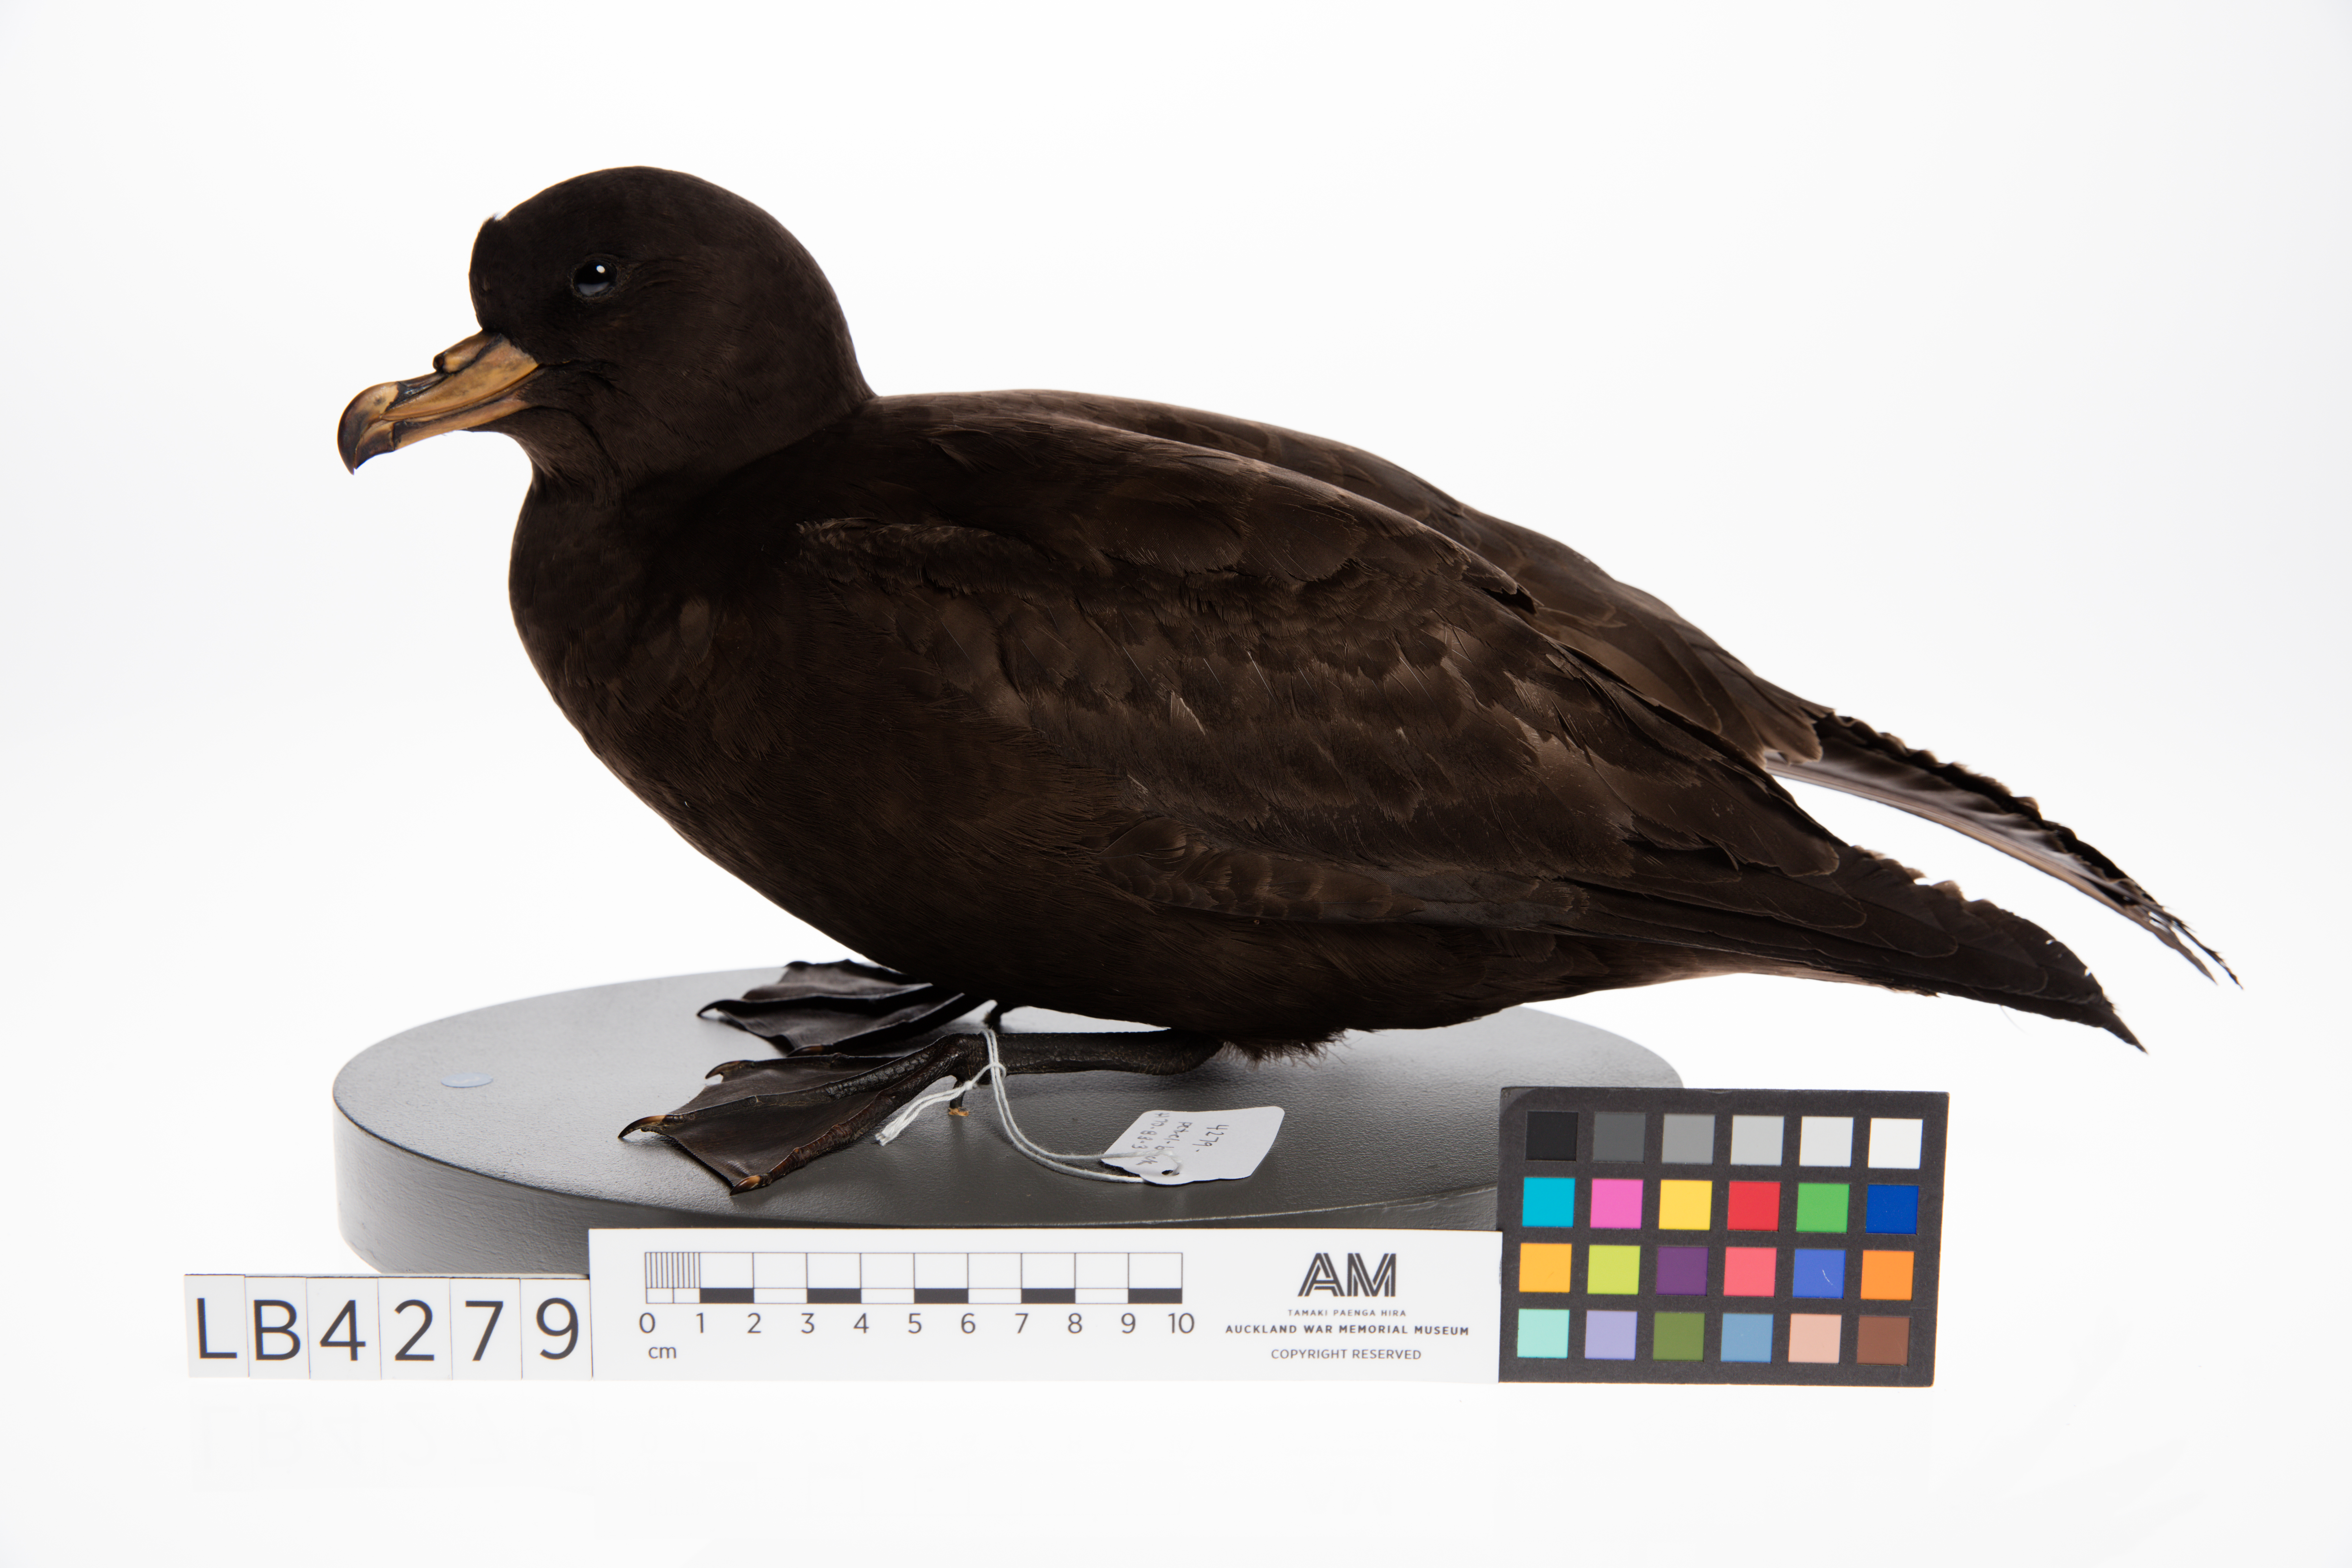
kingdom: Animalia
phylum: Chordata
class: Aves
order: Procellariiformes
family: Procellariidae
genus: Procellaria
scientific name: Procellaria parkinsoni
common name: Black petrel
